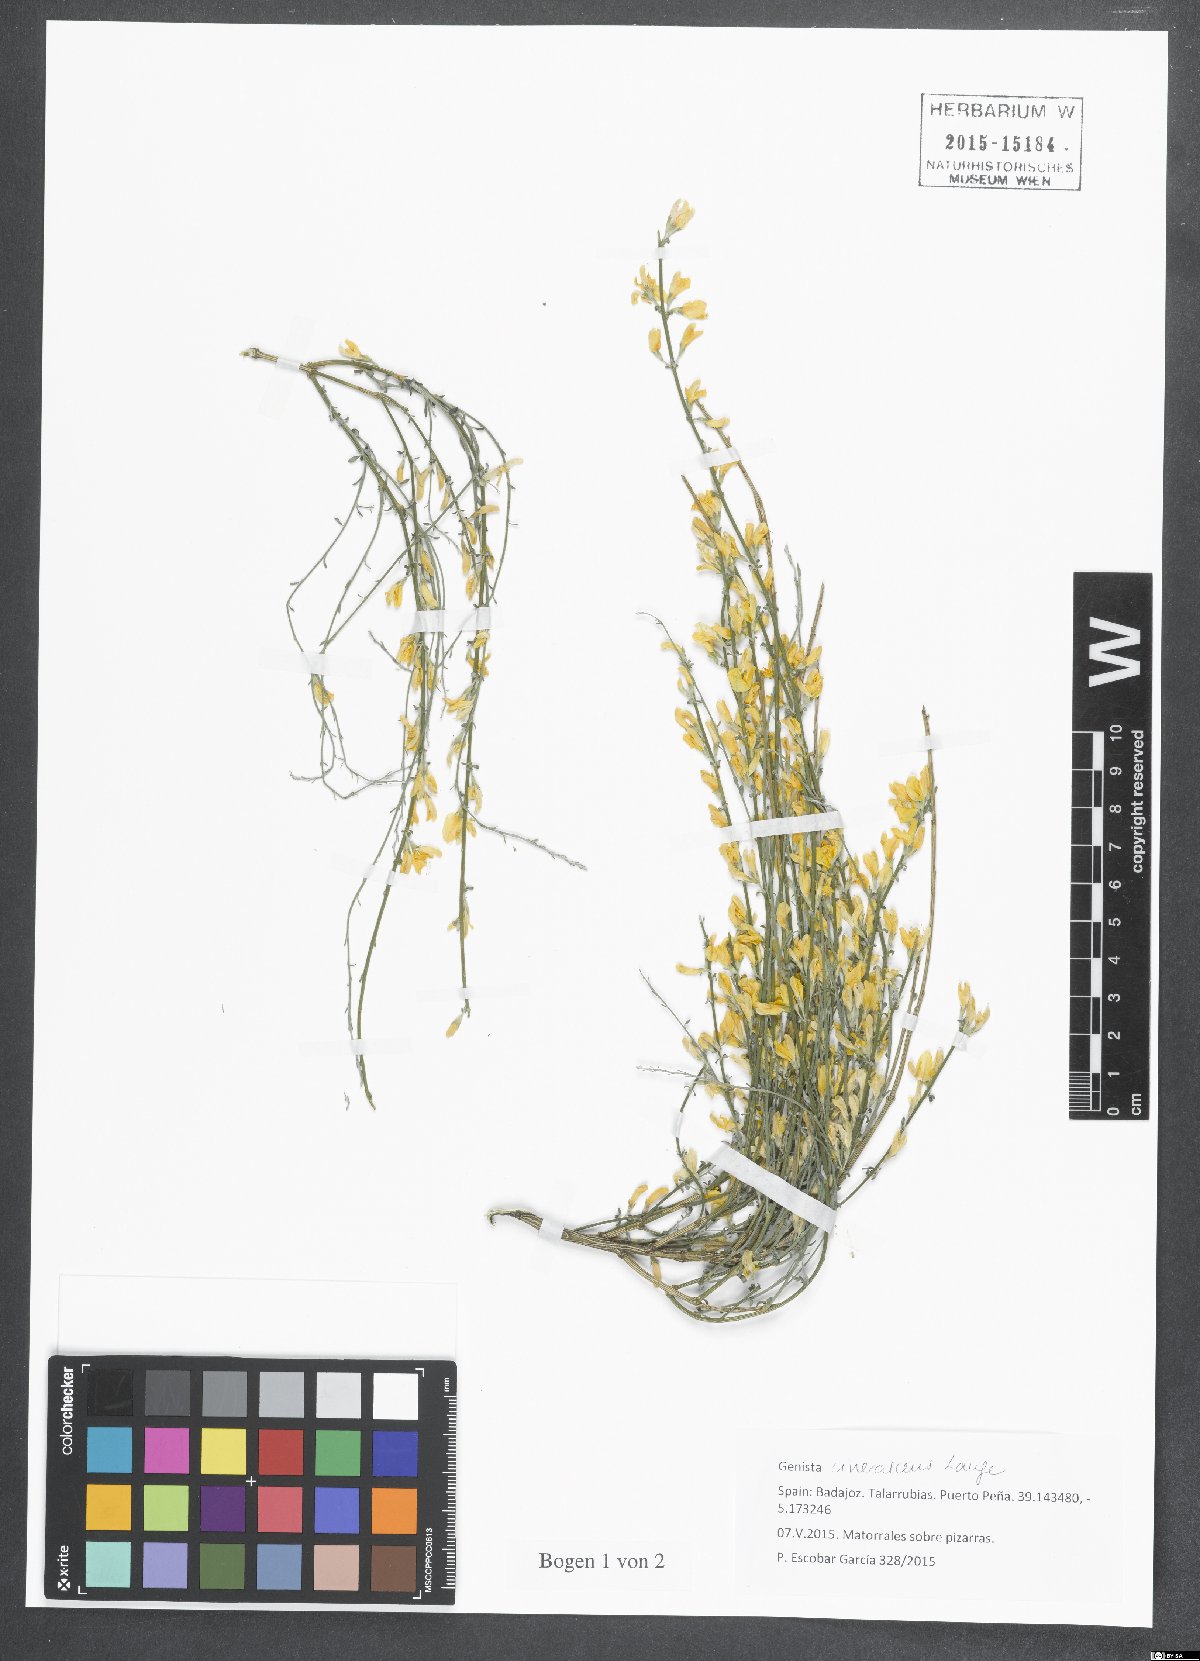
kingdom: Plantae
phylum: Tracheophyta
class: Magnoliopsida
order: Fabales
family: Fabaceae
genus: Genista
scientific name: Genista cinerascens
